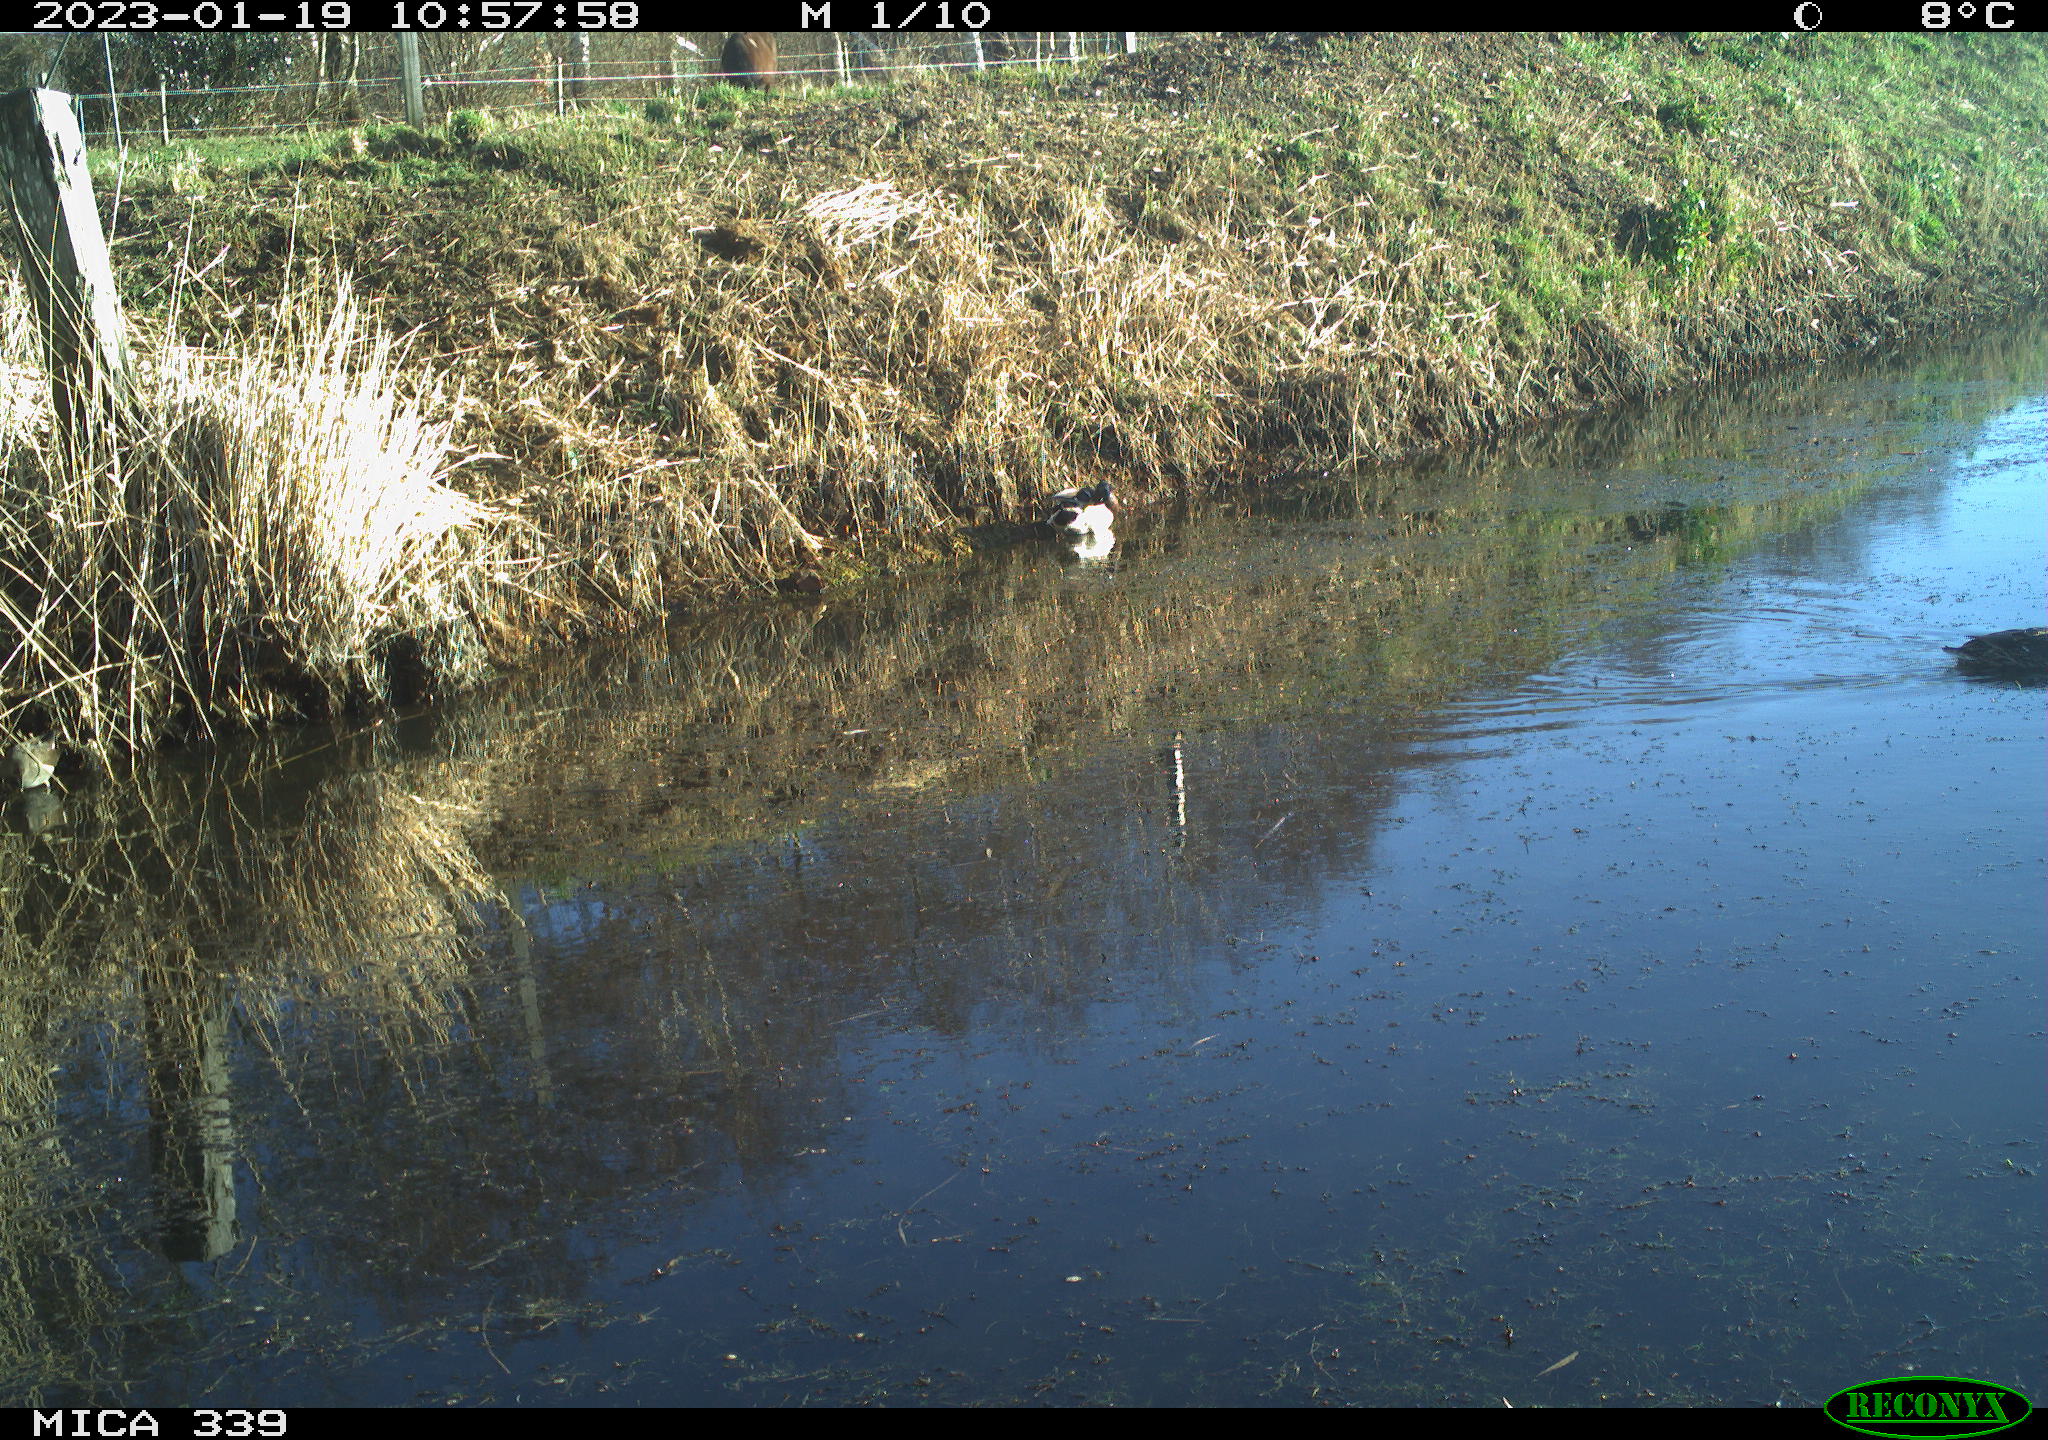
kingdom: Animalia
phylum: Chordata
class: Aves
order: Anseriformes
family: Anatidae
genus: Anas
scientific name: Anas
